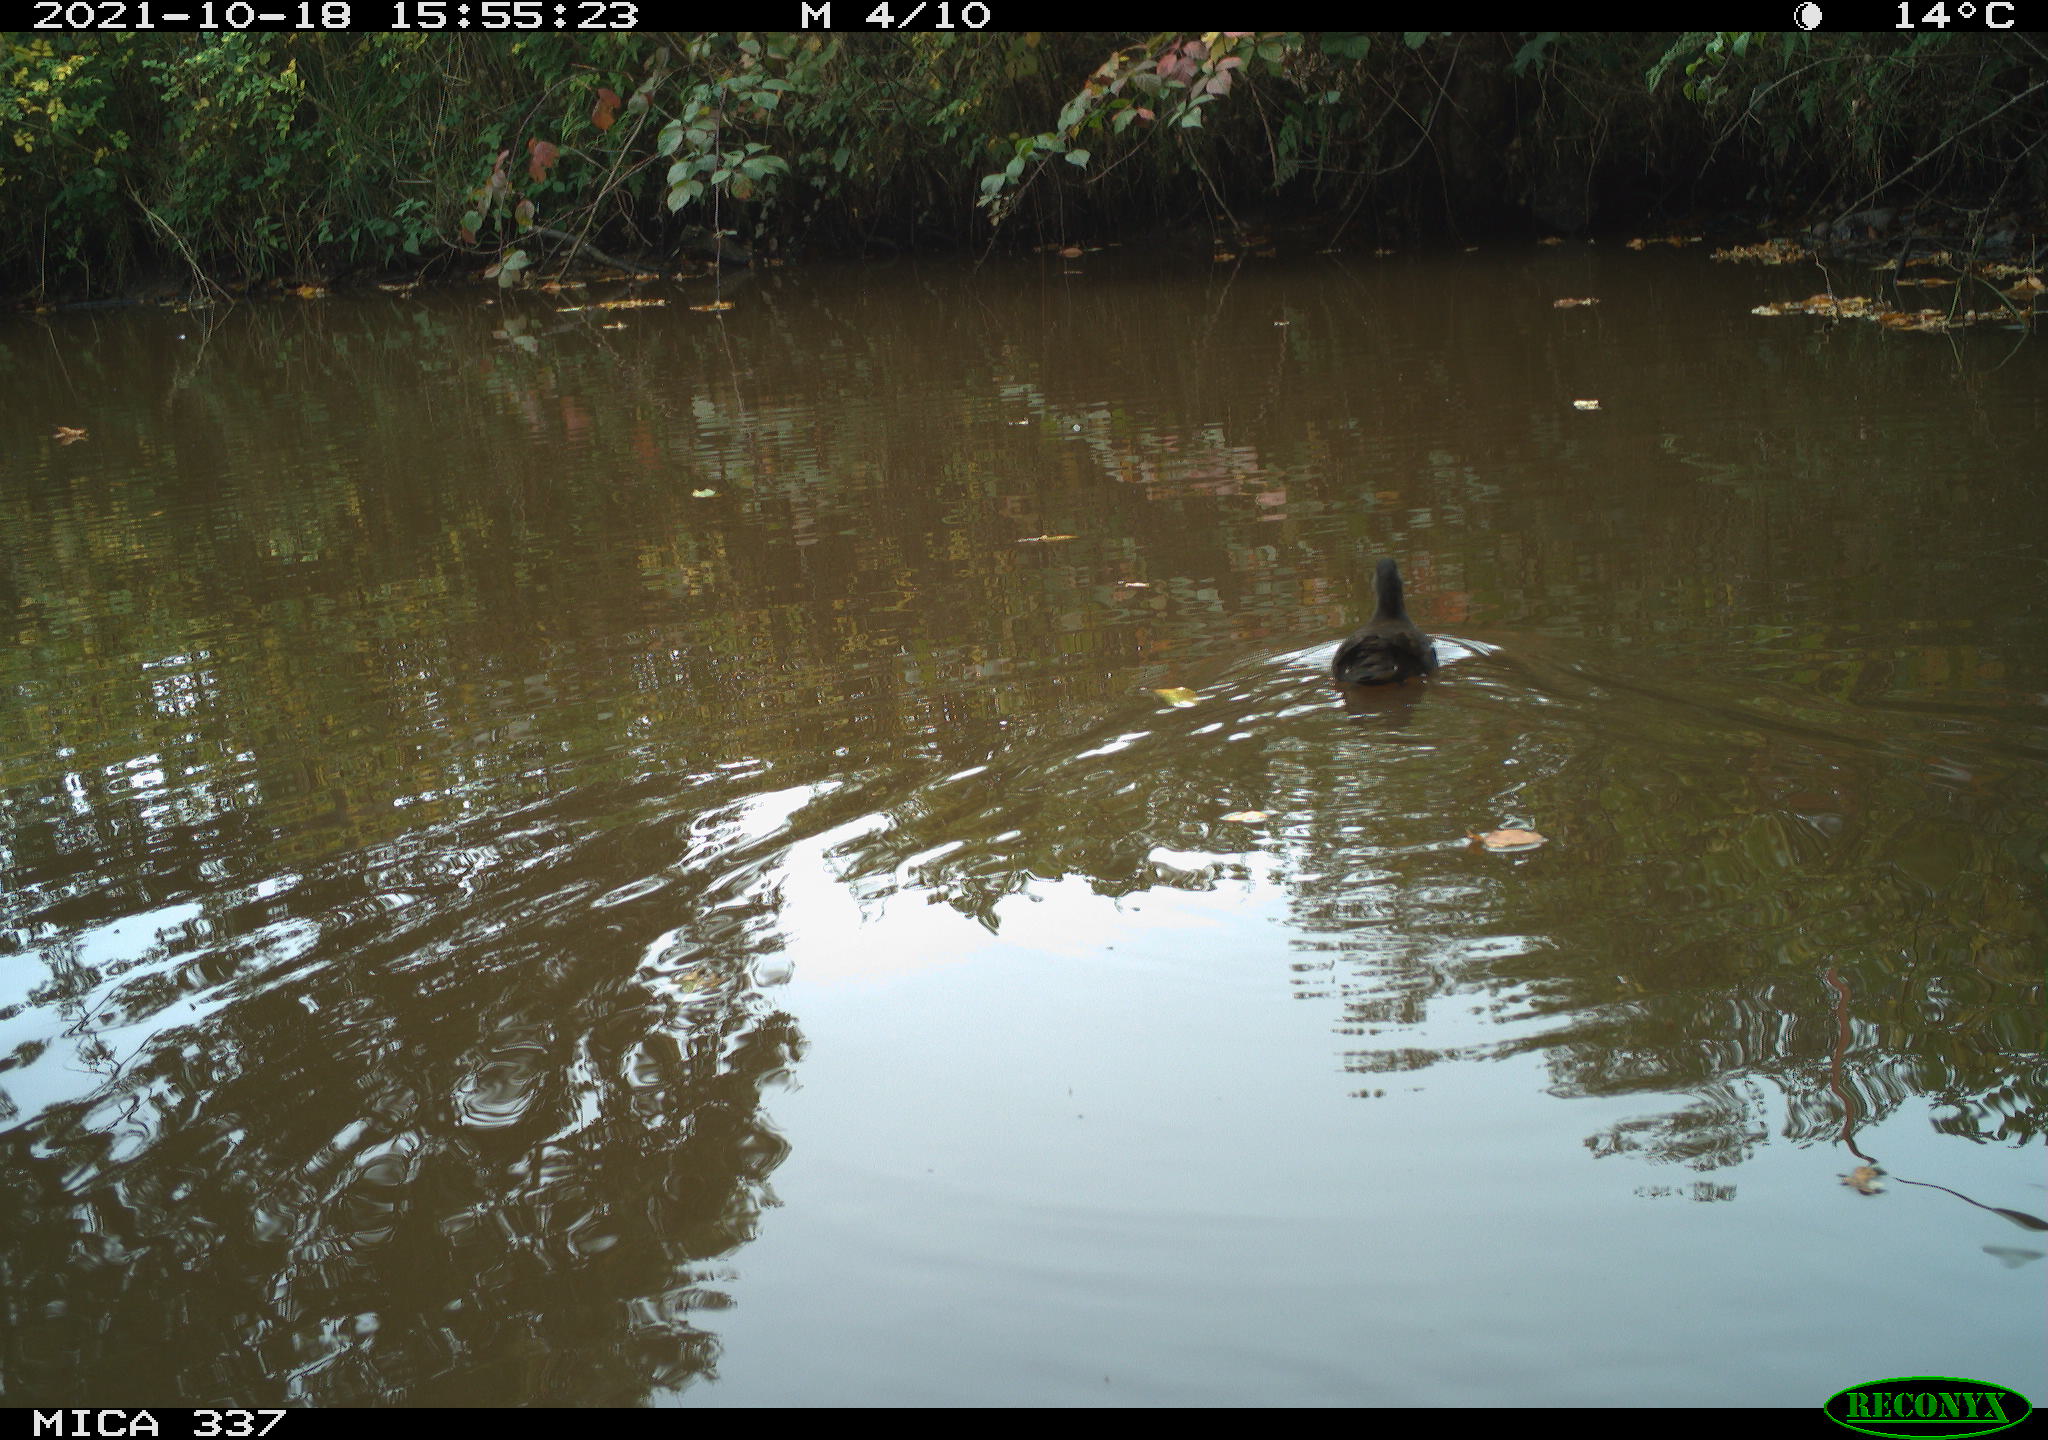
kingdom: Animalia
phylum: Chordata
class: Aves
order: Gruiformes
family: Rallidae
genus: Gallinula
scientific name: Gallinula chloropus
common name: Common moorhen
